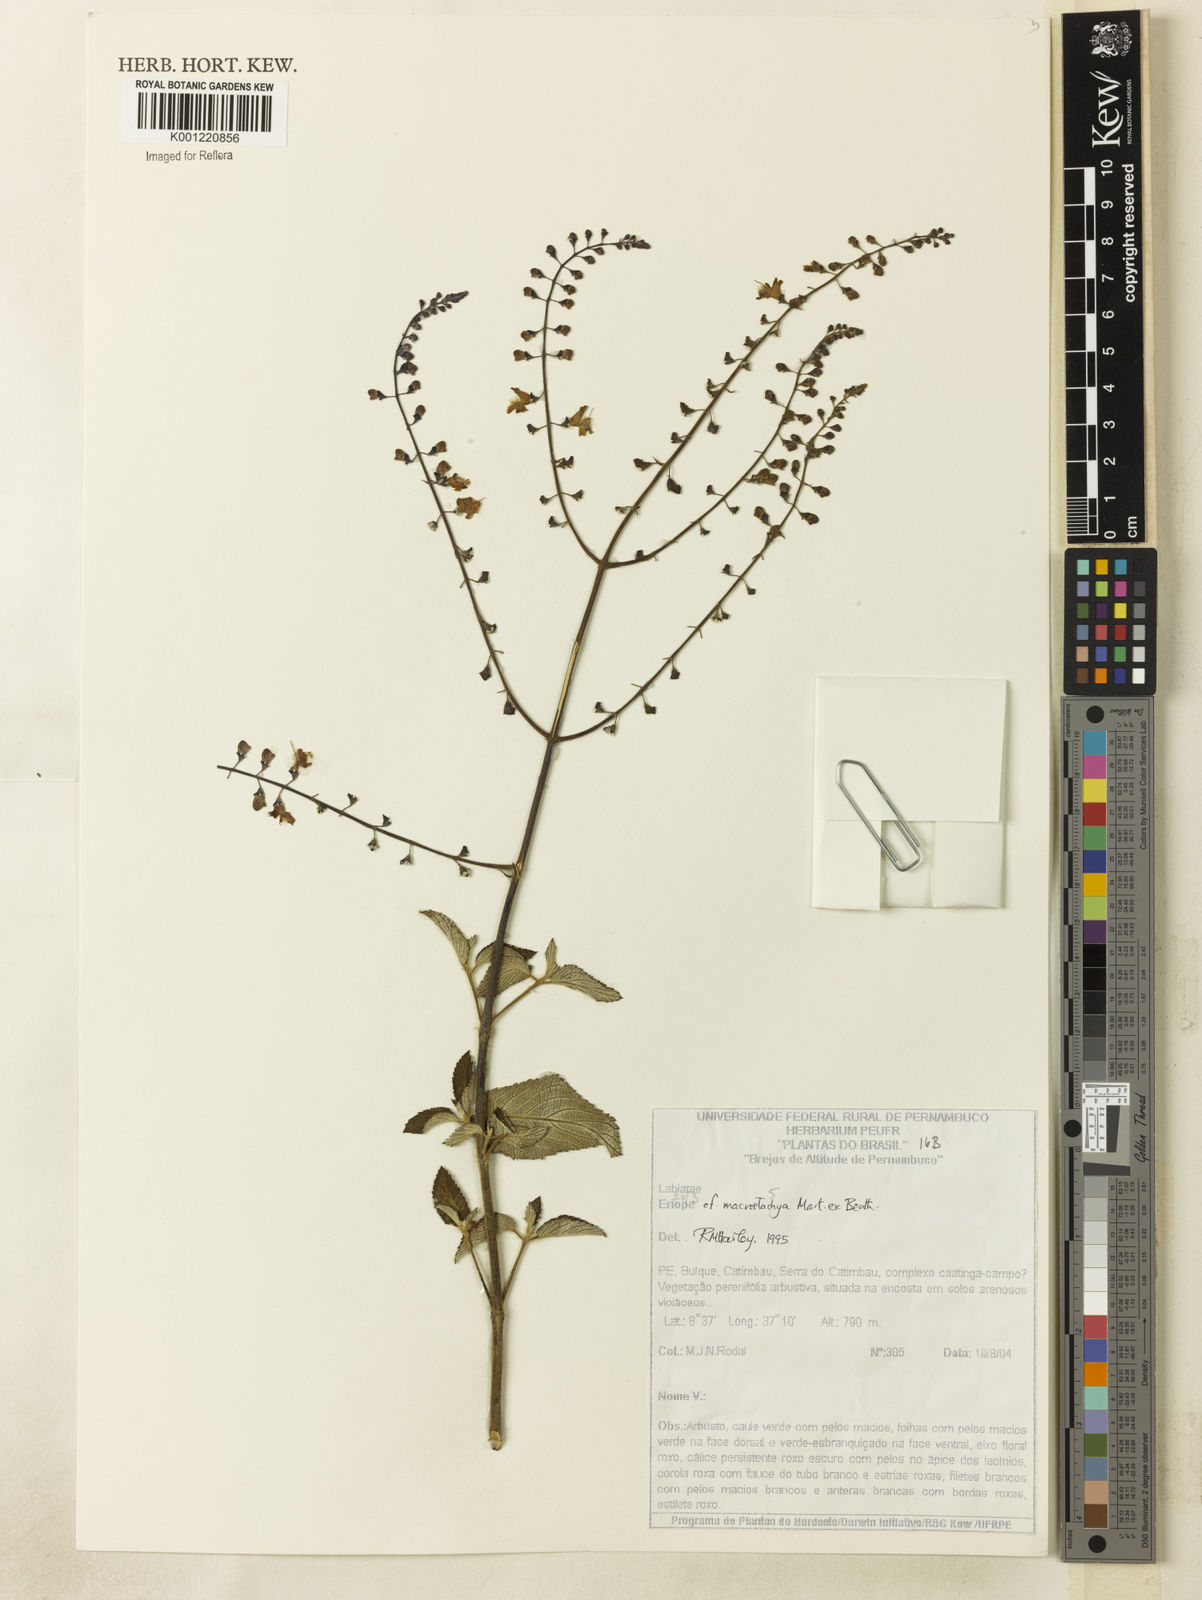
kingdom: Plantae
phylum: Tracheophyta
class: Magnoliopsida
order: Lamiales
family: Lamiaceae
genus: Eriope
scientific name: Eriope macrostachya
